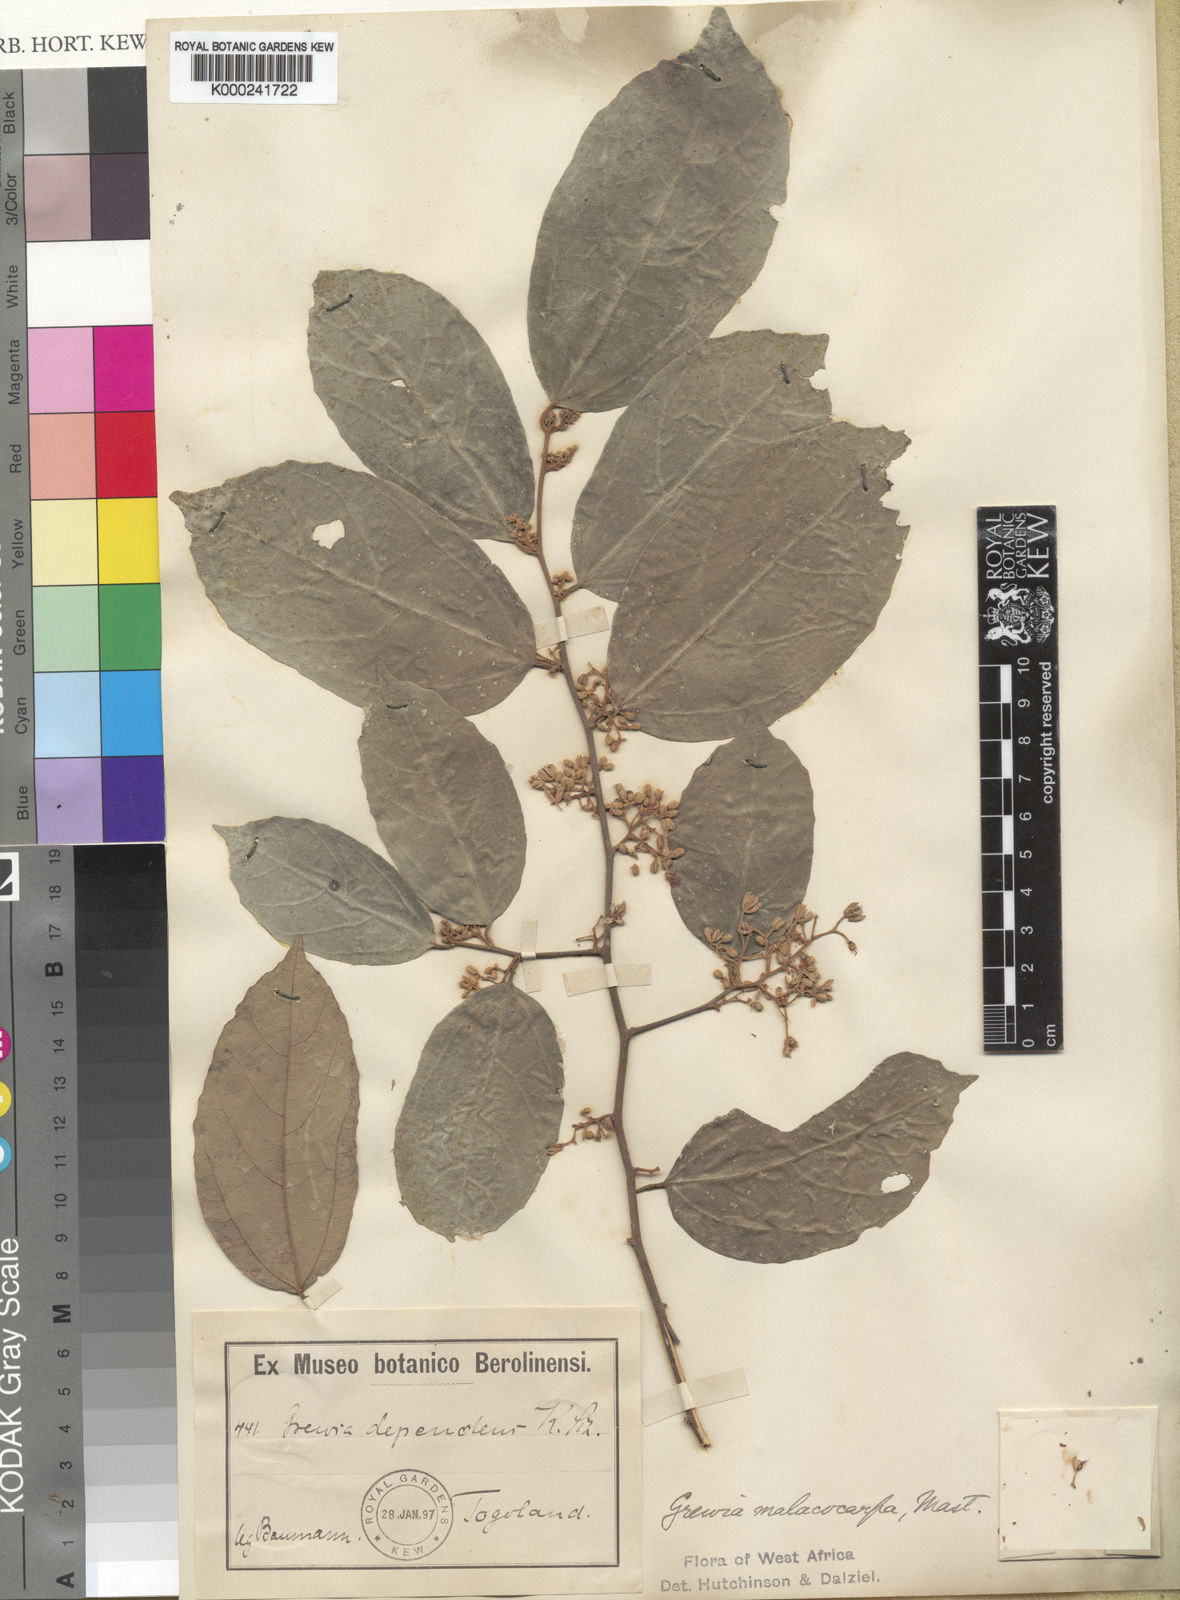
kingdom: Plantae
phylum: Tracheophyta
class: Magnoliopsida
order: Malvales
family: Malvaceae
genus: Microcos
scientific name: Microcos malacocarpa
